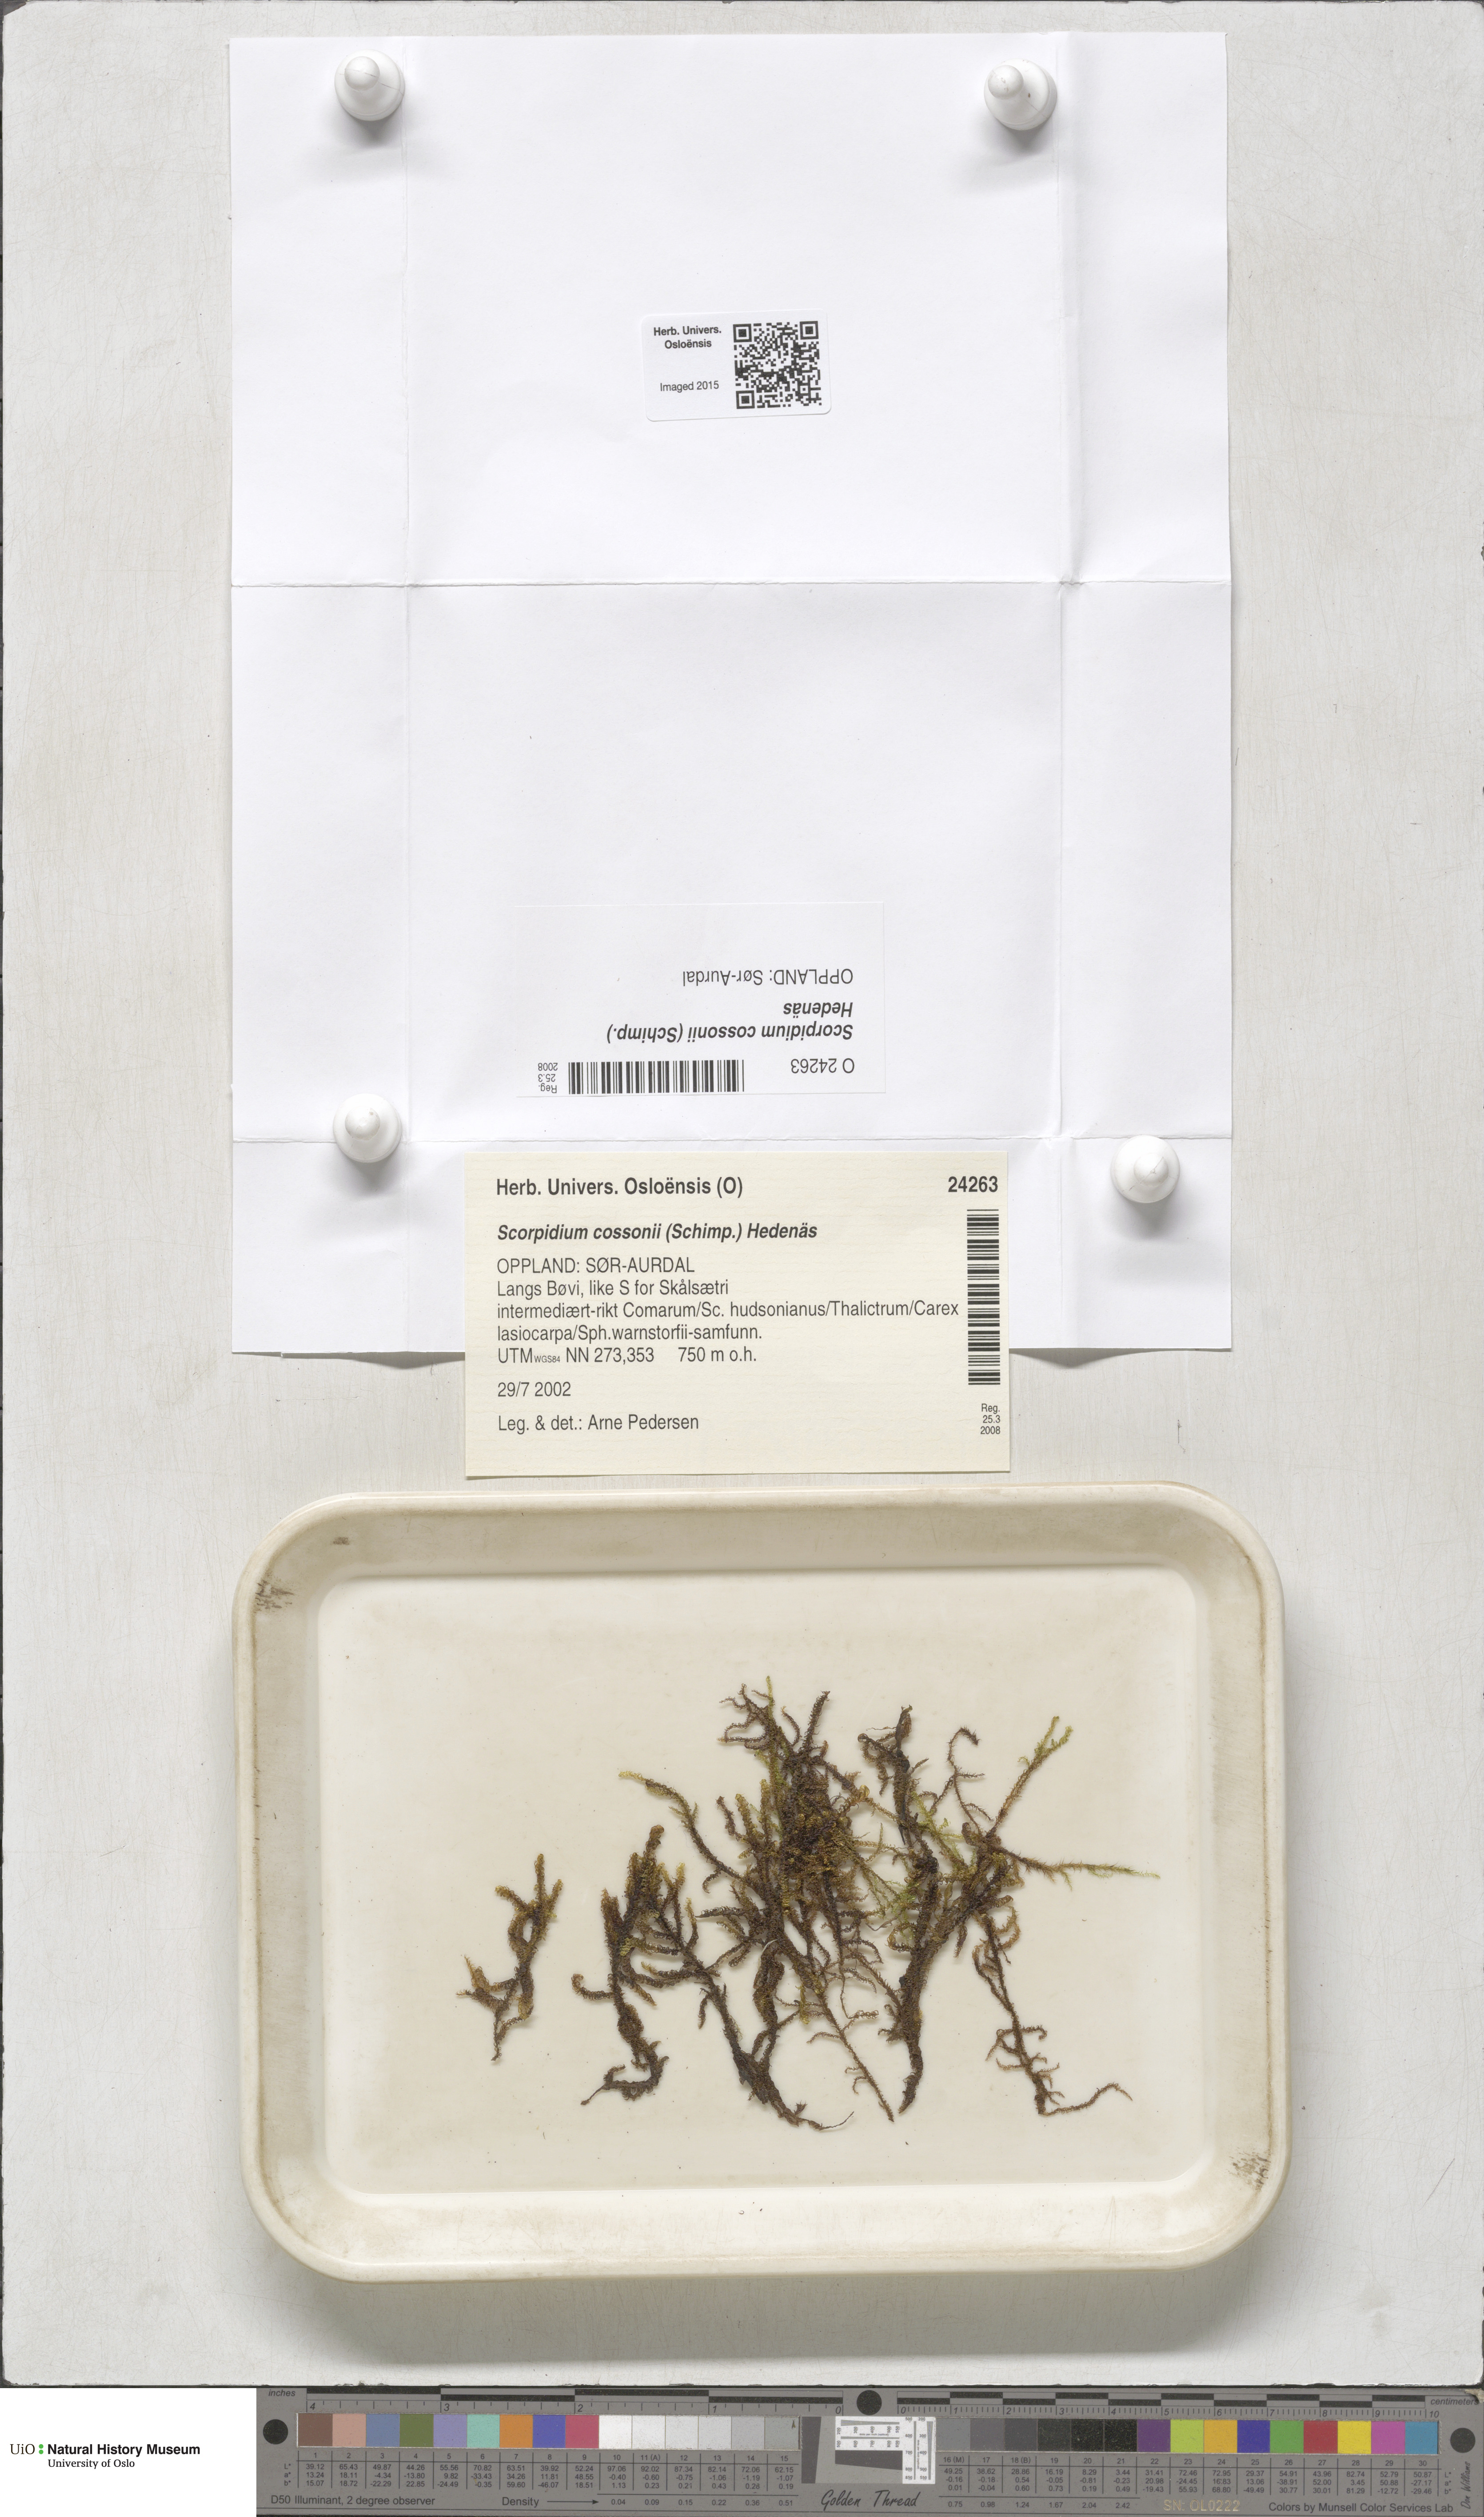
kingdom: Plantae
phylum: Bryophyta
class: Bryopsida
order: Hypnales
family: Scorpidiaceae
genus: Scorpidium
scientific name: Scorpidium cossonii
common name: Cosson's hook moss
